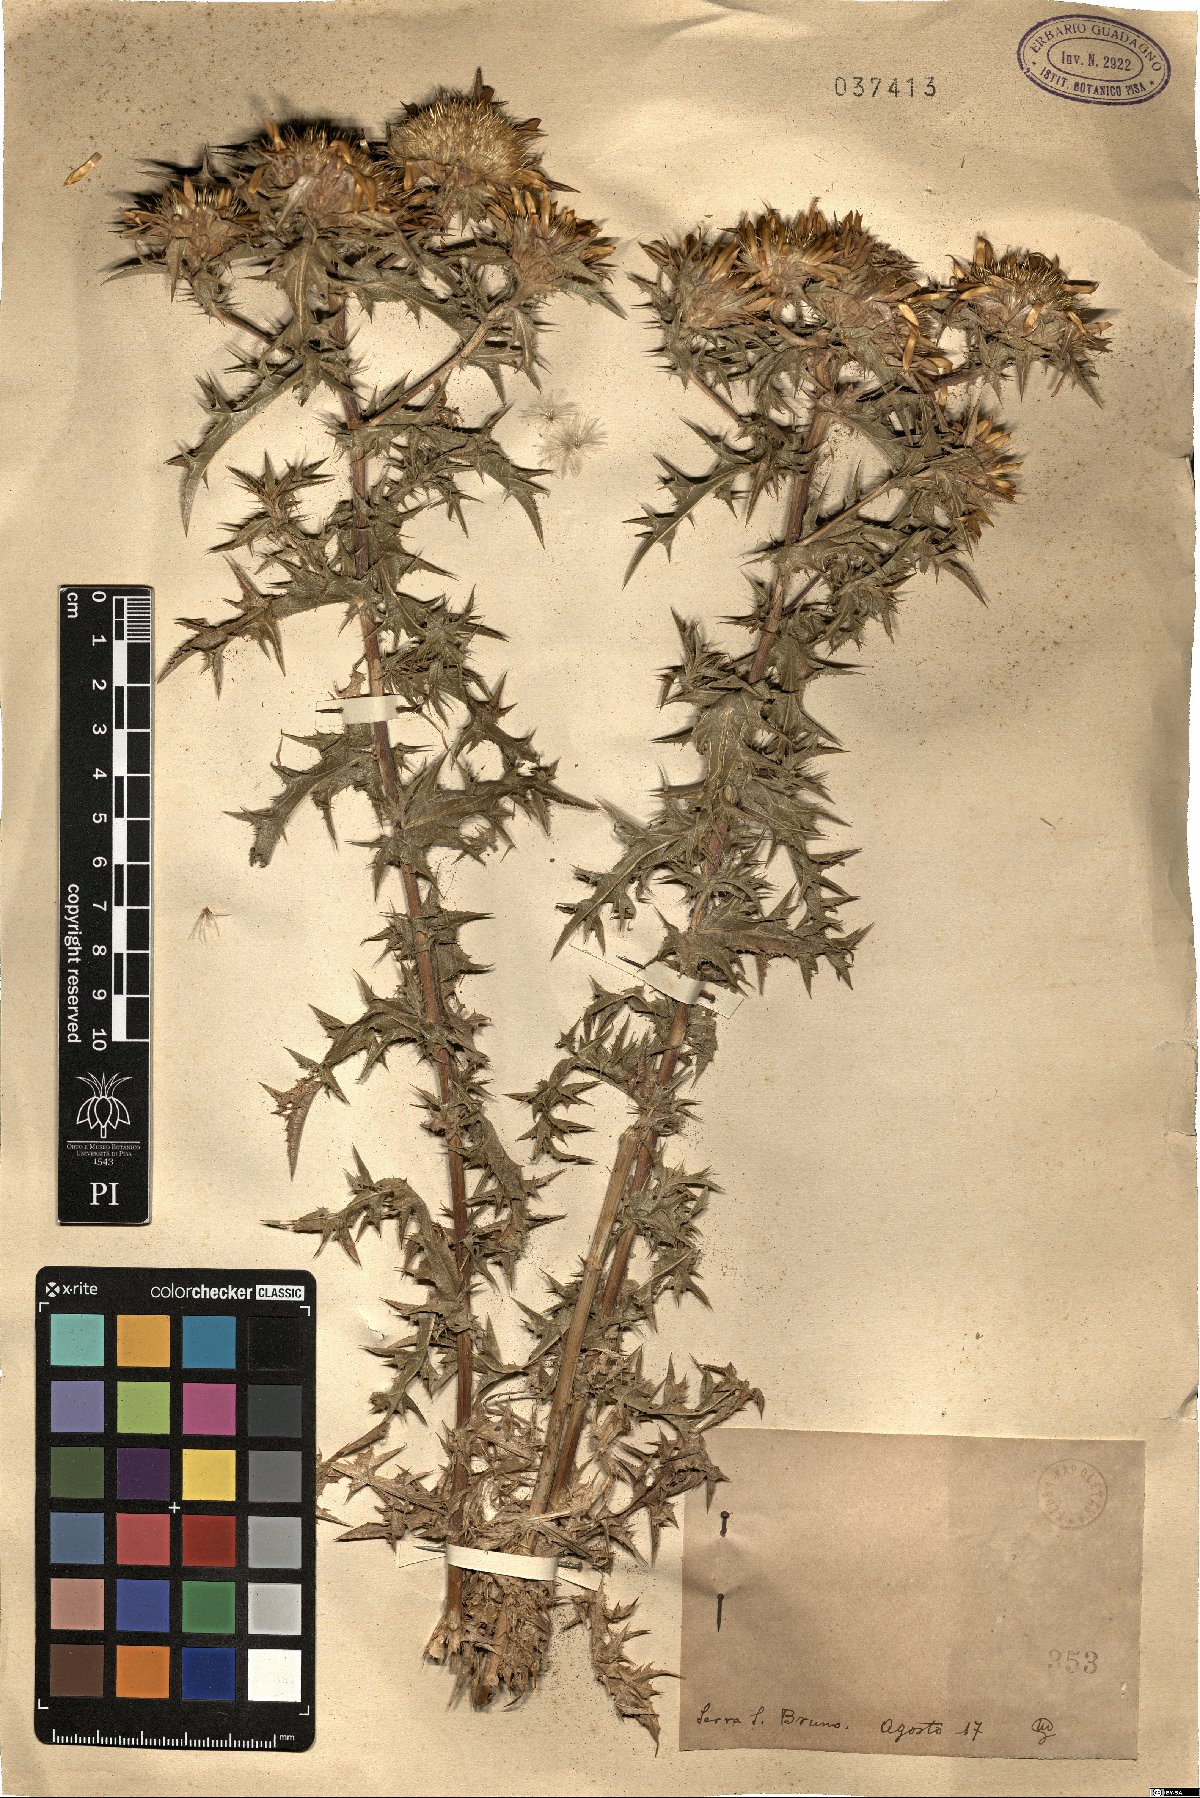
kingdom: Plantae
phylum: Tracheophyta
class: Magnoliopsida
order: Asterales
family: Asteraceae
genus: Carlina
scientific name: Carlina
